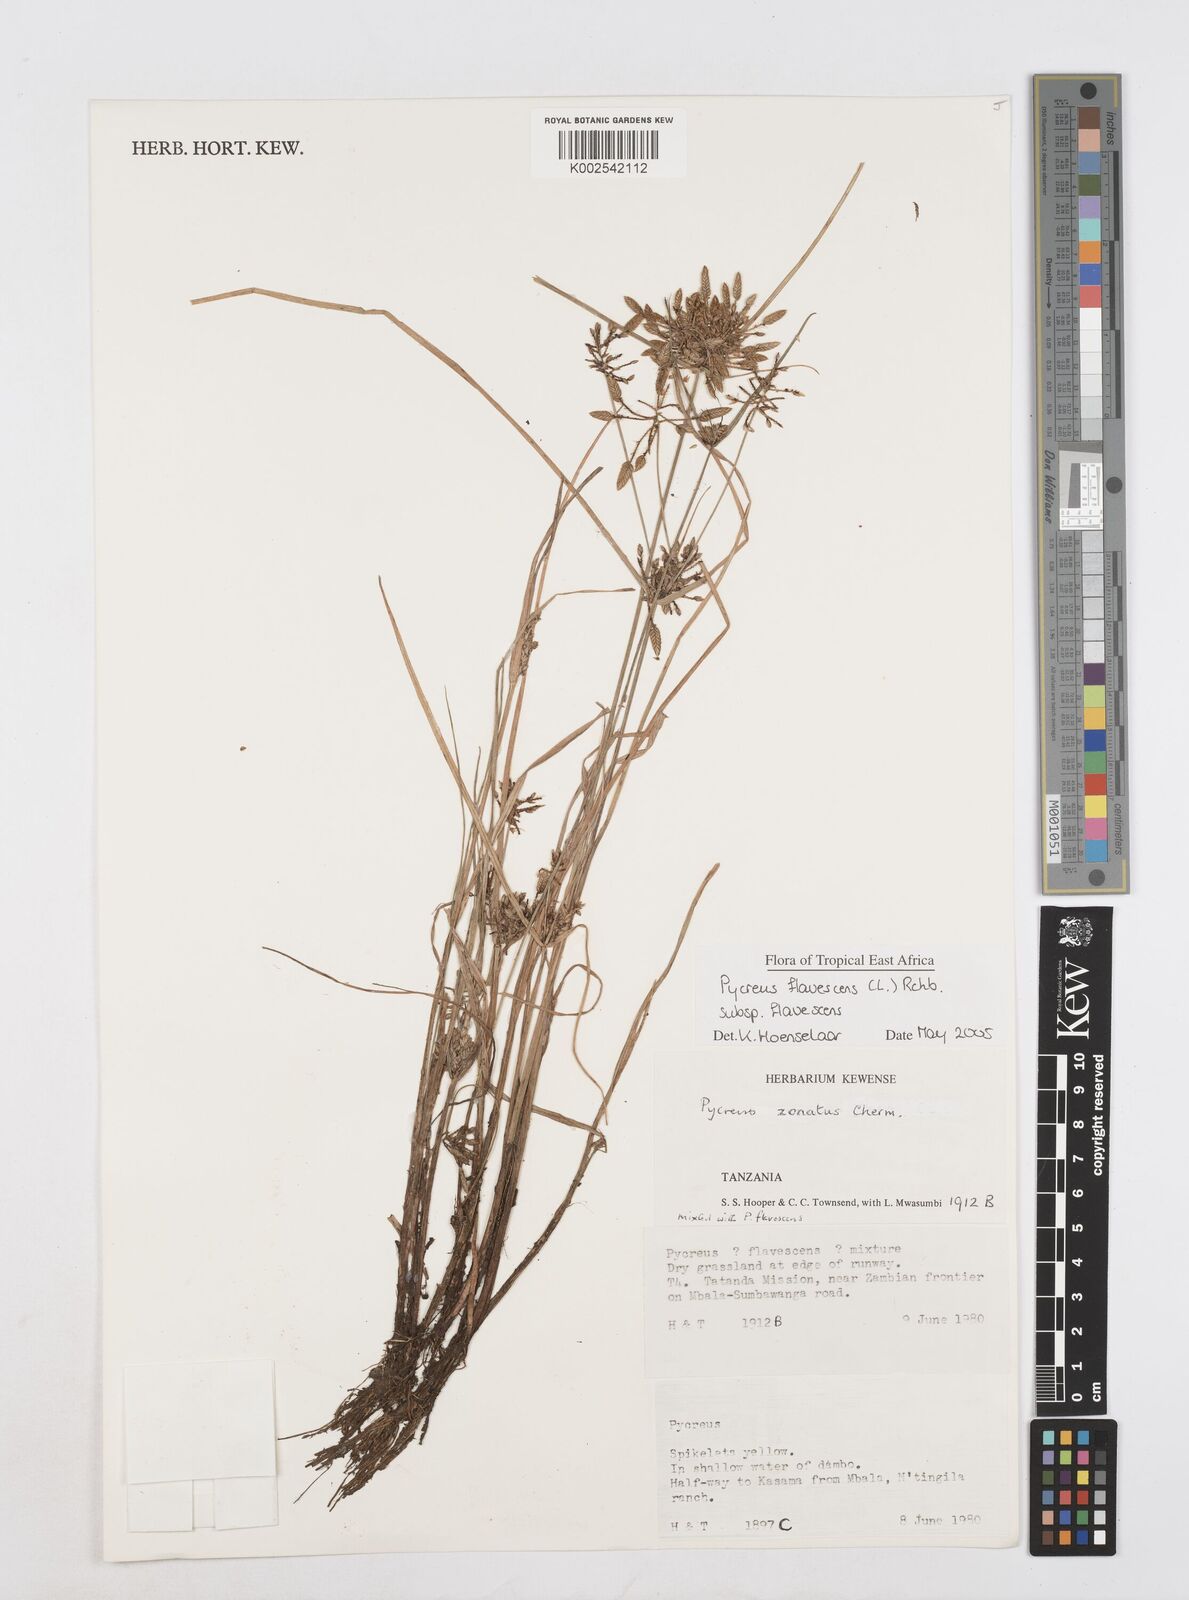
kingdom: Plantae
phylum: Tracheophyta
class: Liliopsida
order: Poales
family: Cyperaceae
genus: Cyperus
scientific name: Cyperus flavescens
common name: Yellow galingale
